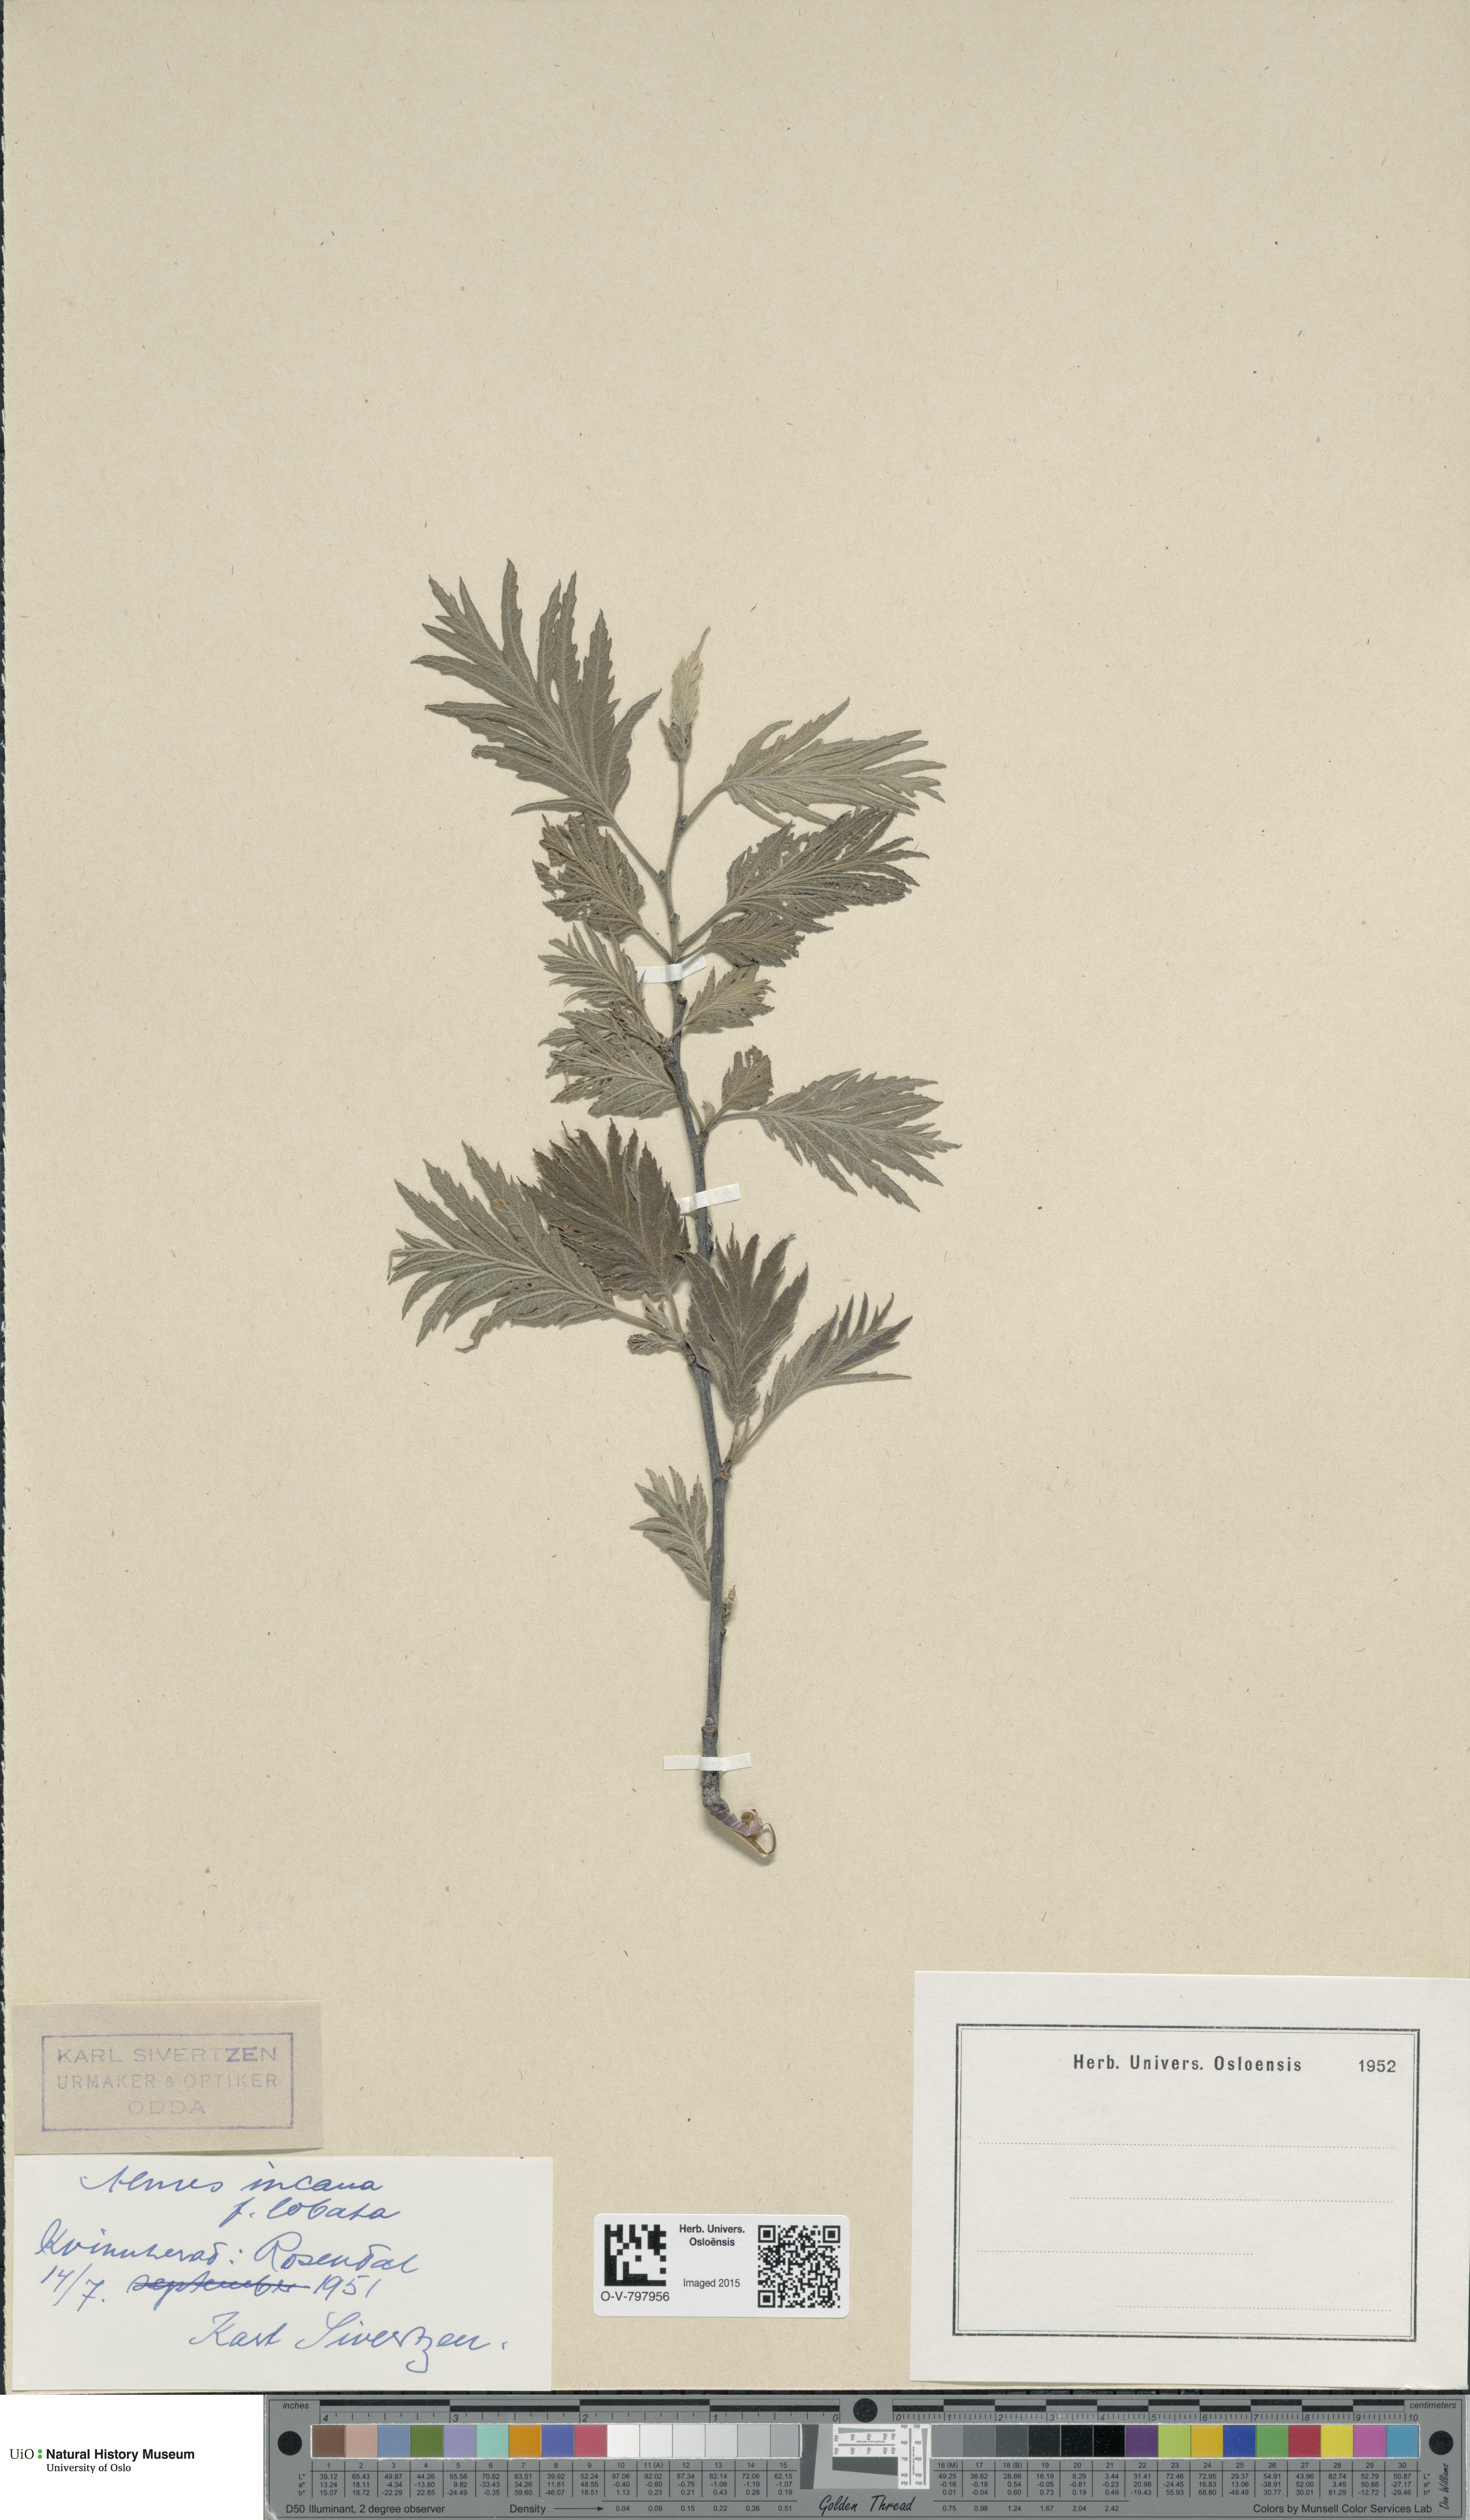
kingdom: Plantae
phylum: Tracheophyta
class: Magnoliopsida
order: Fagales
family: Betulaceae
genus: Alnus
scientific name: Alnus incana
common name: Grey alder
